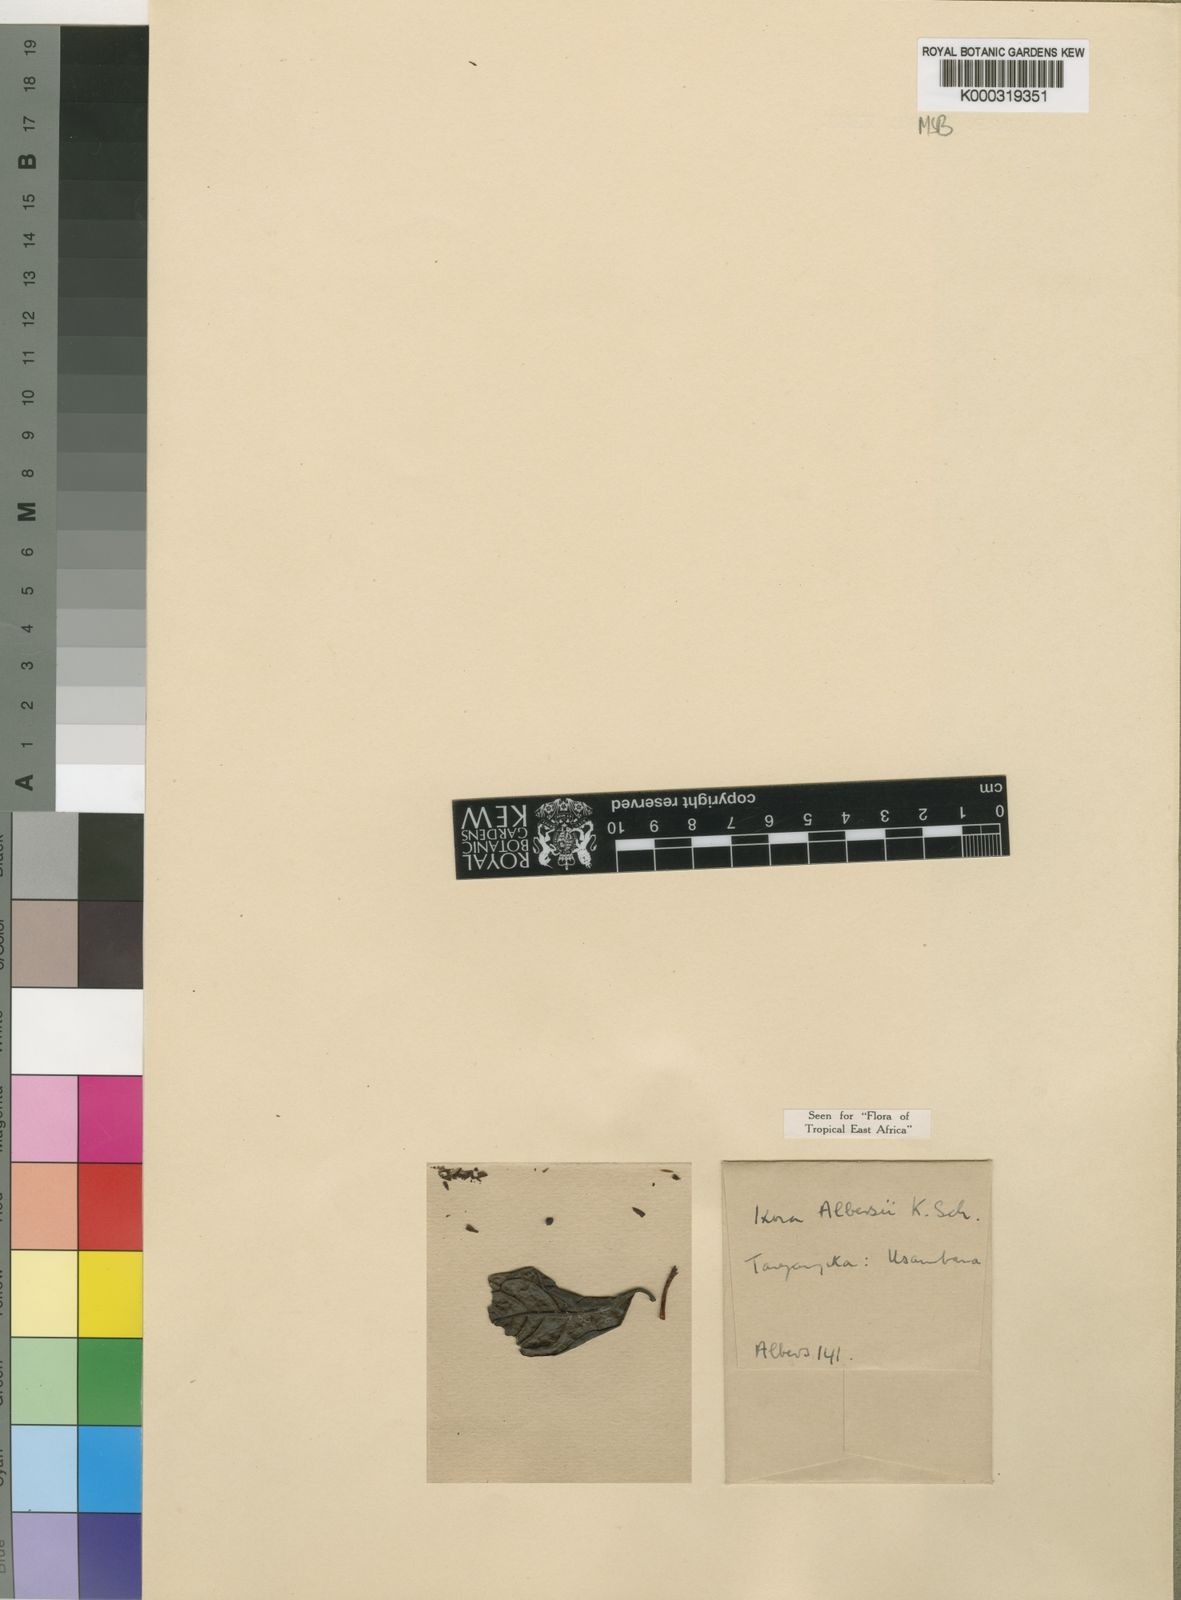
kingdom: Plantae
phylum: Tracheophyta
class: Magnoliopsida
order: Gentianales
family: Rubiaceae
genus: Ixora
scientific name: Ixora albersii
